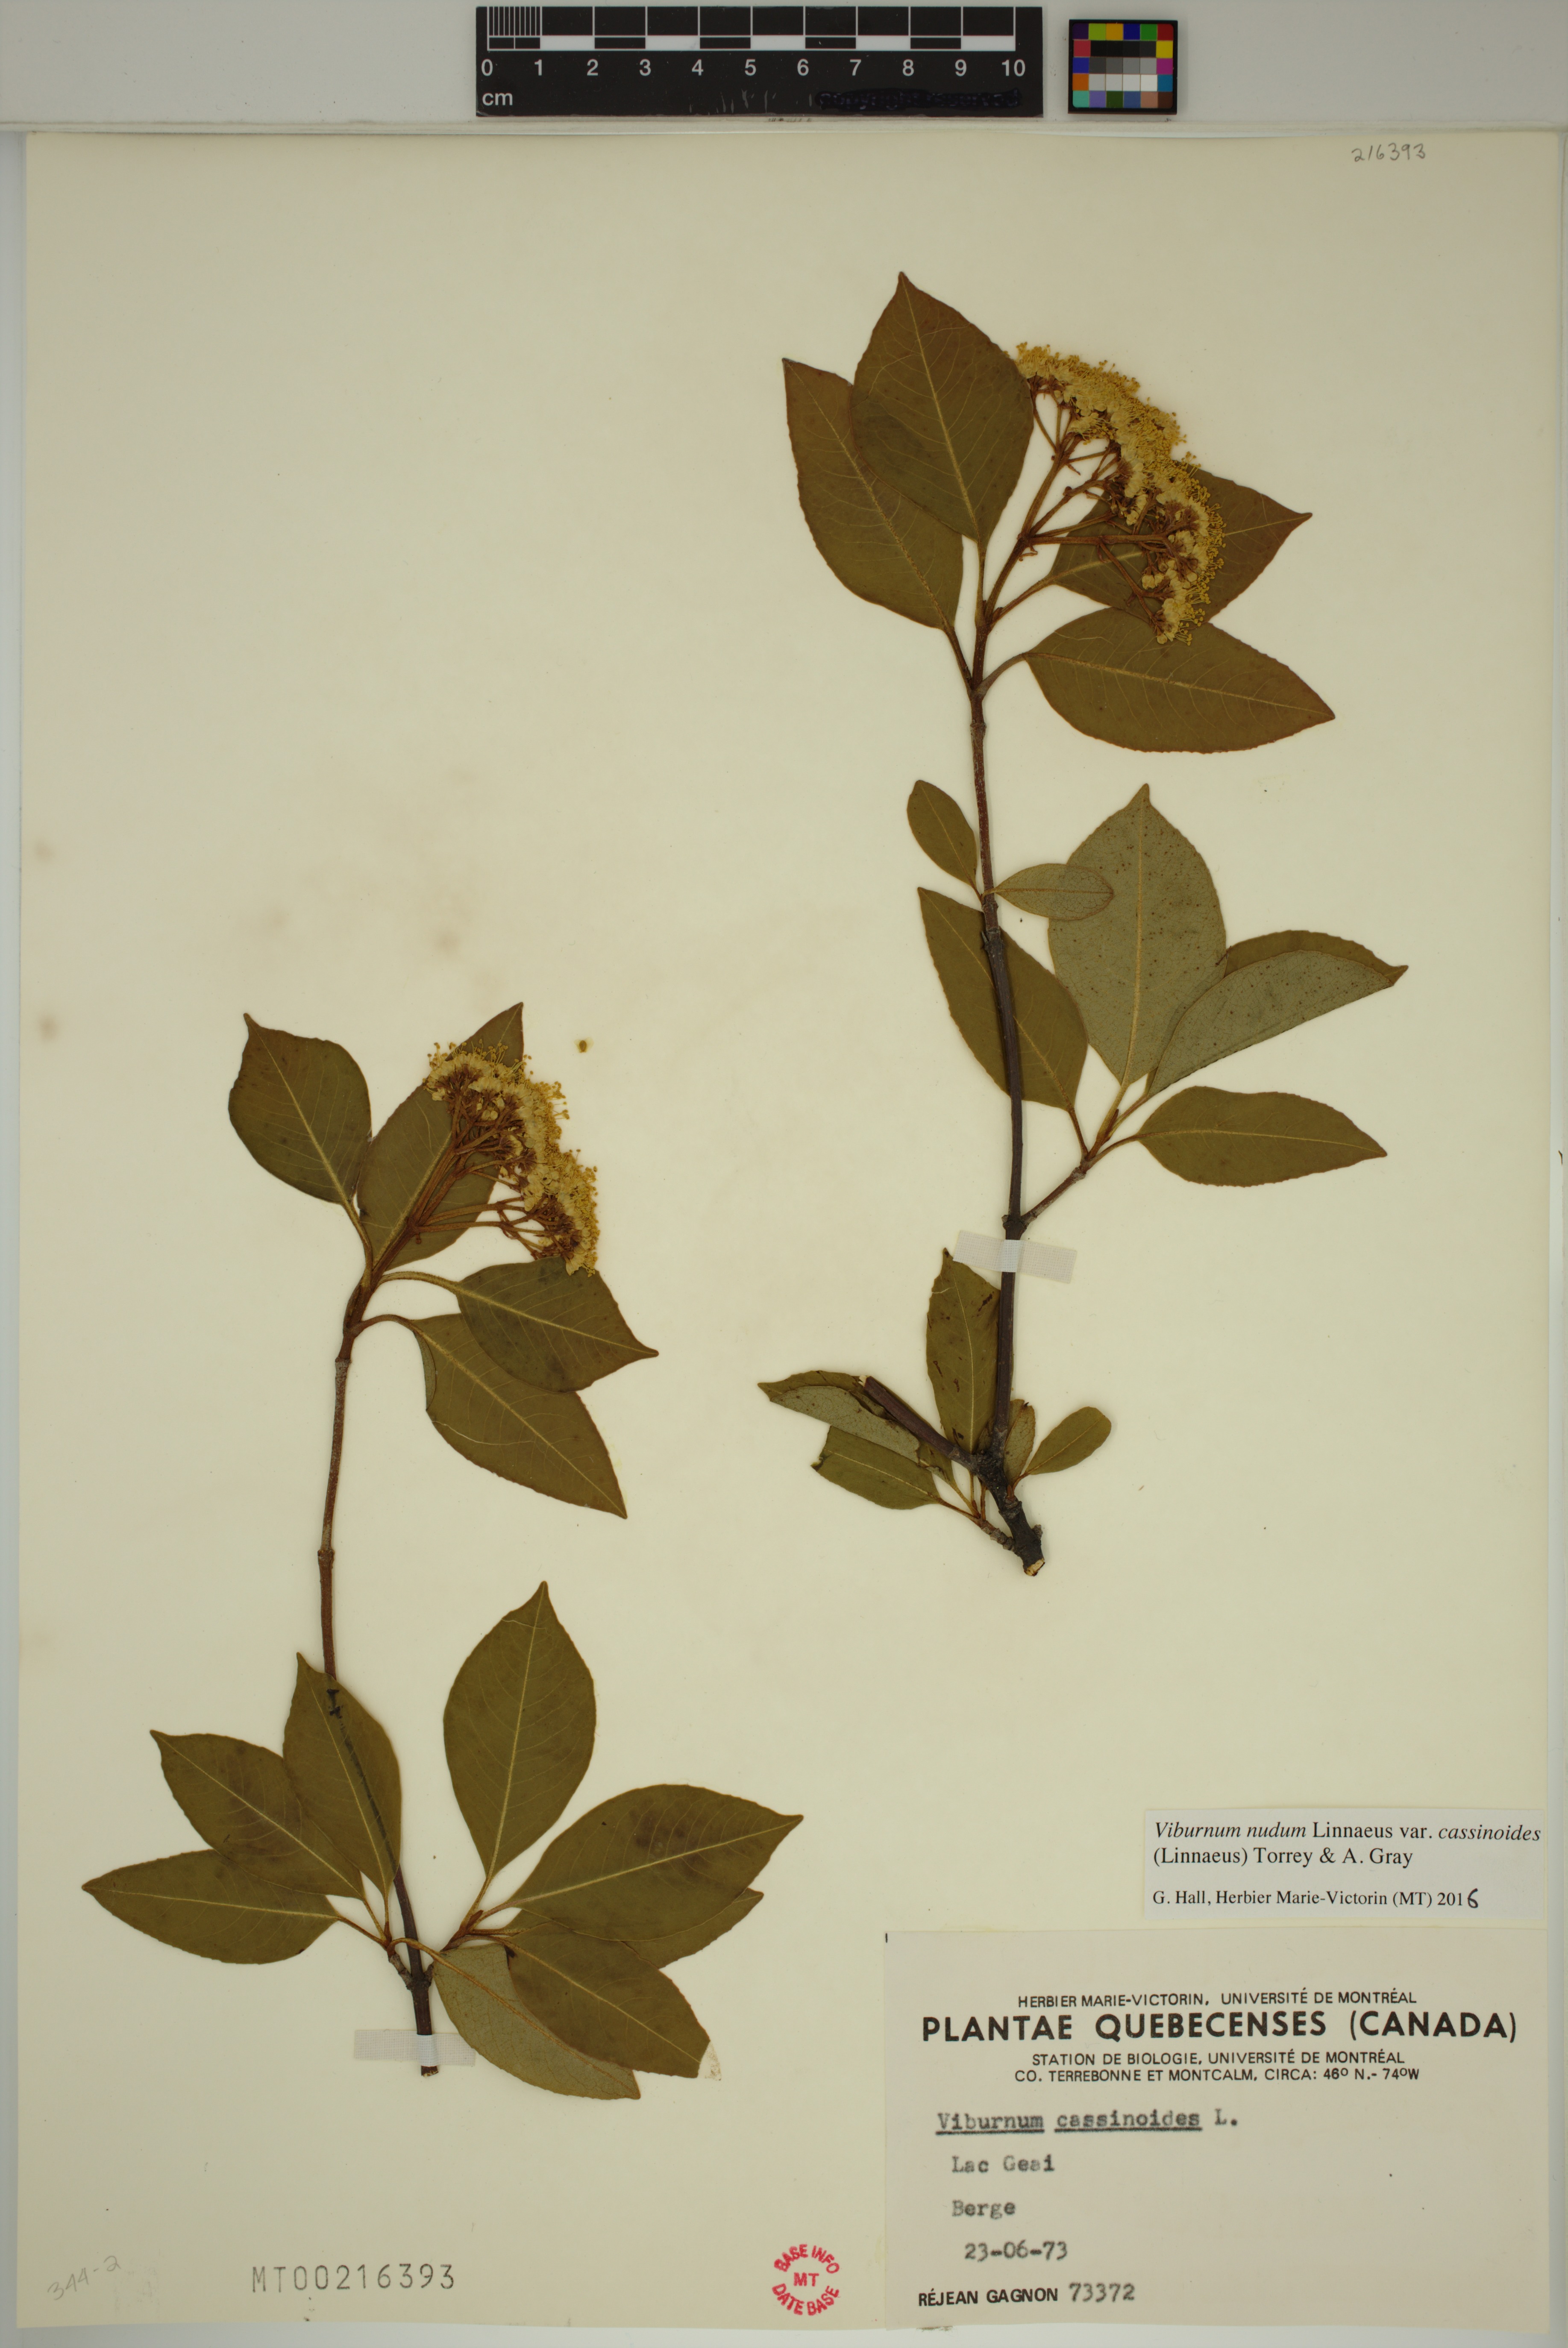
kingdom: Plantae
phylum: Tracheophyta
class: Magnoliopsida
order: Dipsacales
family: Viburnaceae
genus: Viburnum
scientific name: Viburnum cassinoides
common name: Swamp haw
